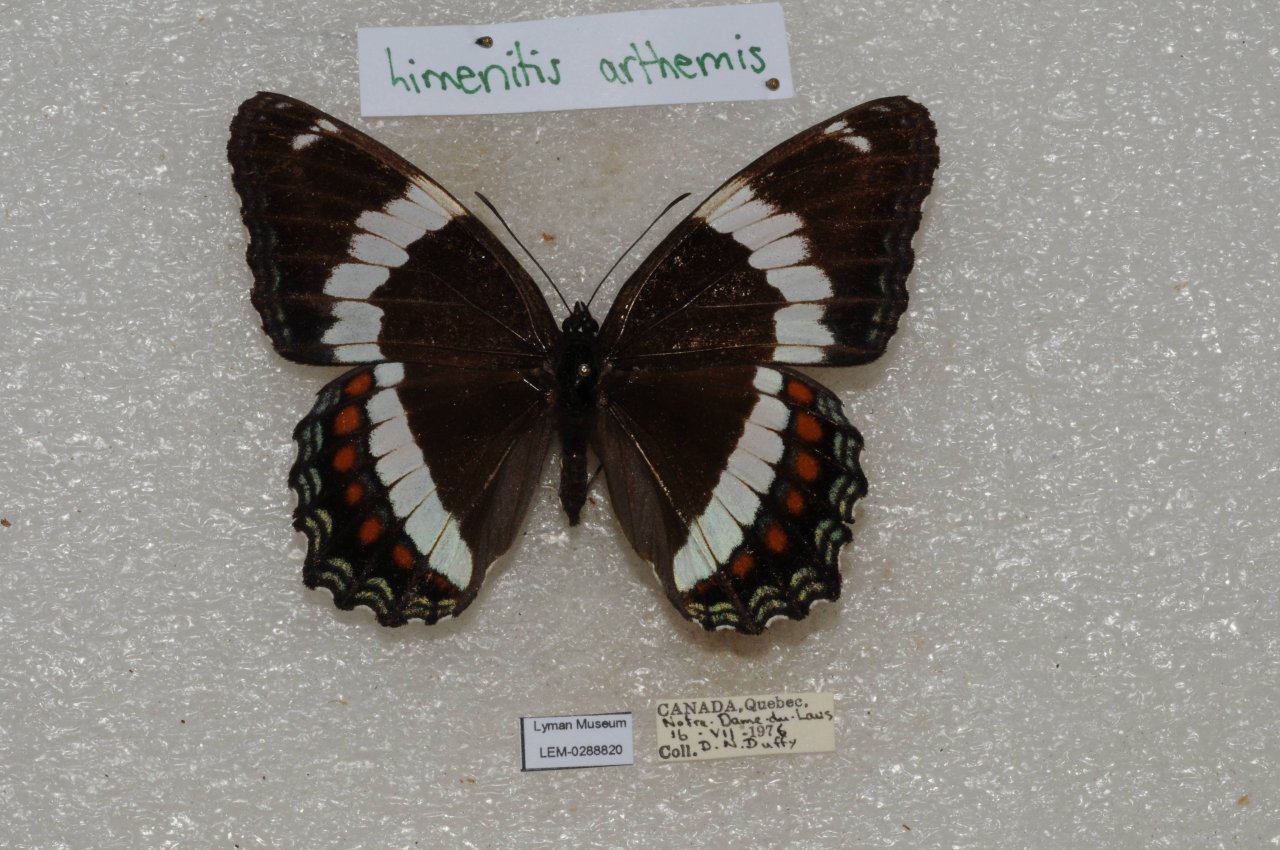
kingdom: Animalia
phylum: Arthropoda
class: Insecta
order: Lepidoptera
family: Nymphalidae
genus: Limenitis
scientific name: Limenitis arthemis
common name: Red-spotted Admiral
